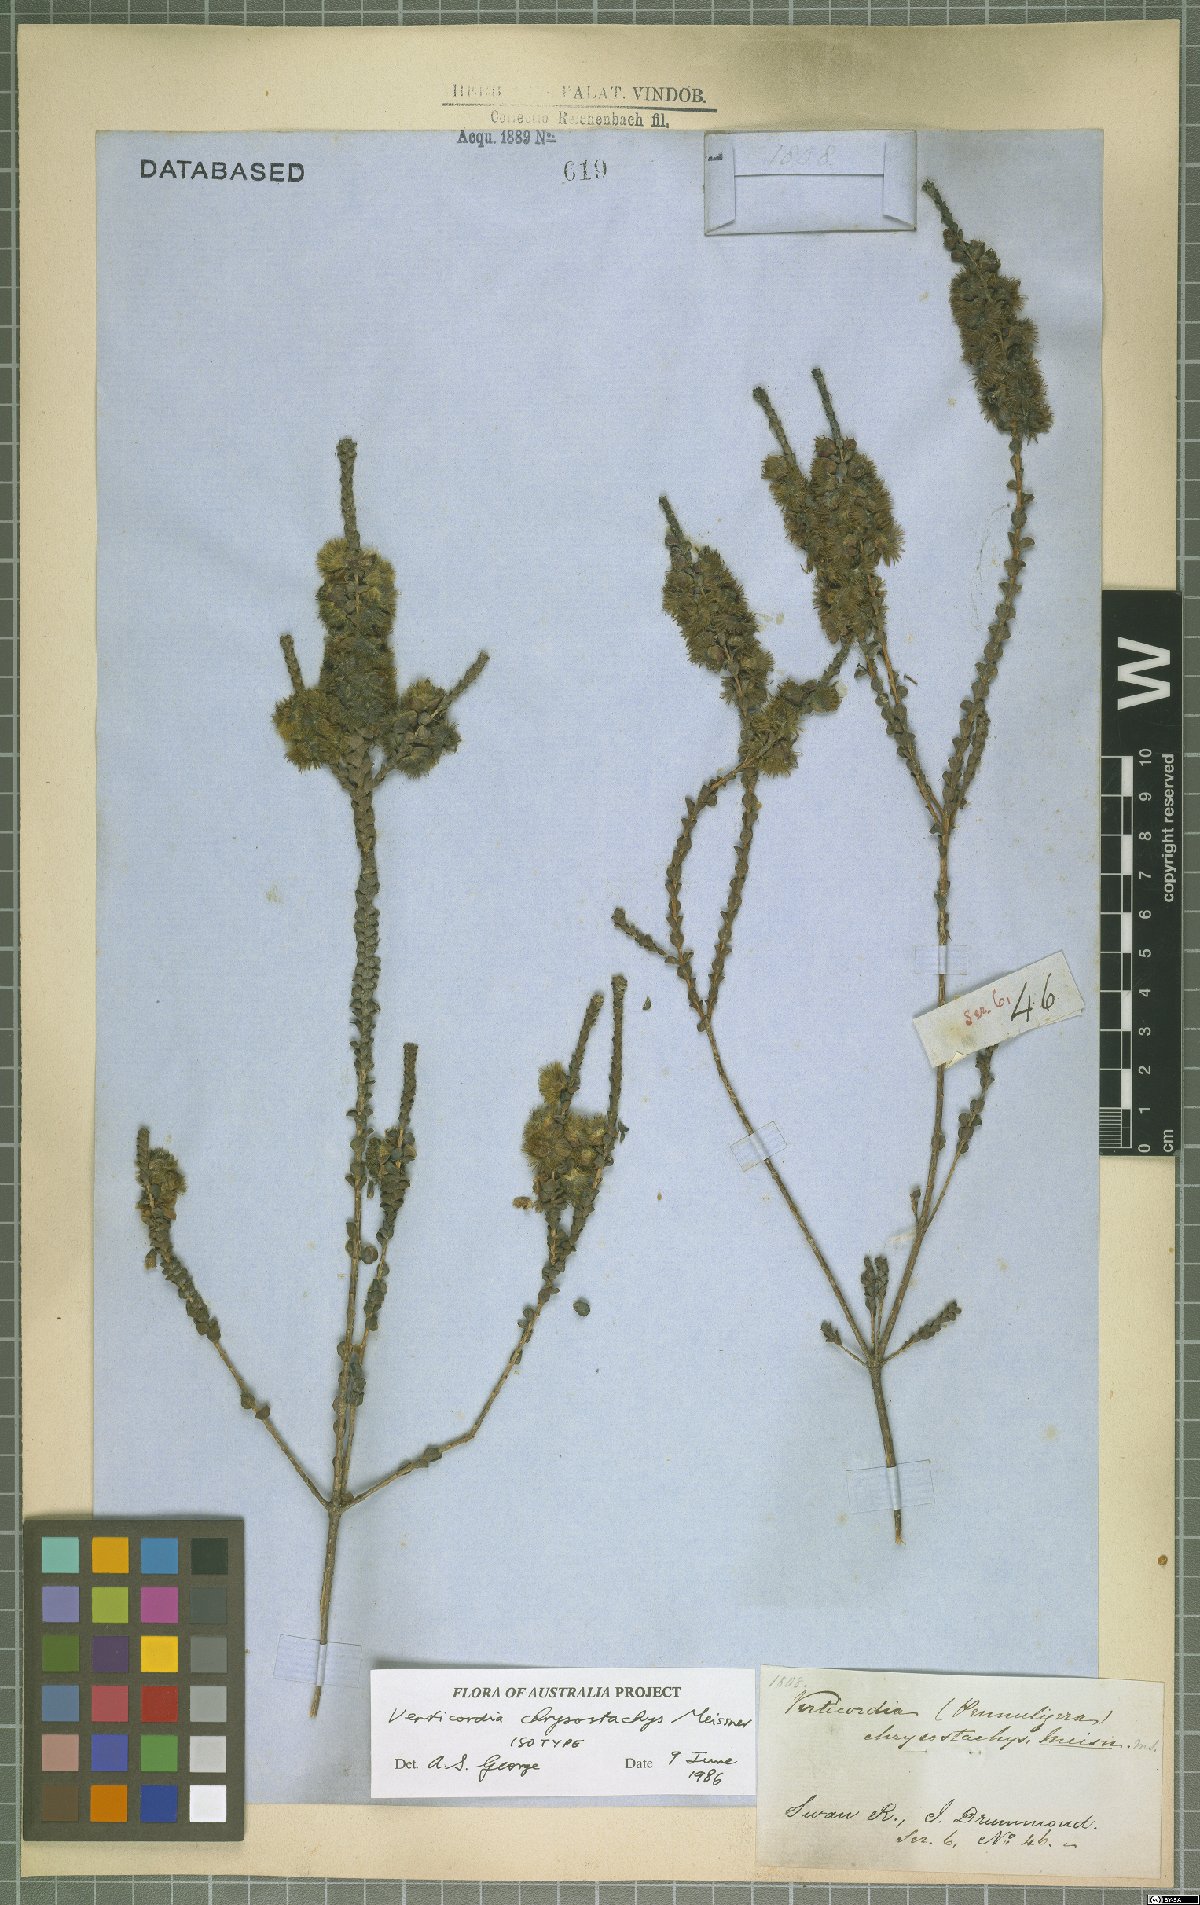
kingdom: Plantae
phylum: Tracheophyta
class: Magnoliopsida
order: Myrtales
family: Myrtaceae
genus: Verticordia
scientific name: Verticordia chrysostachys
